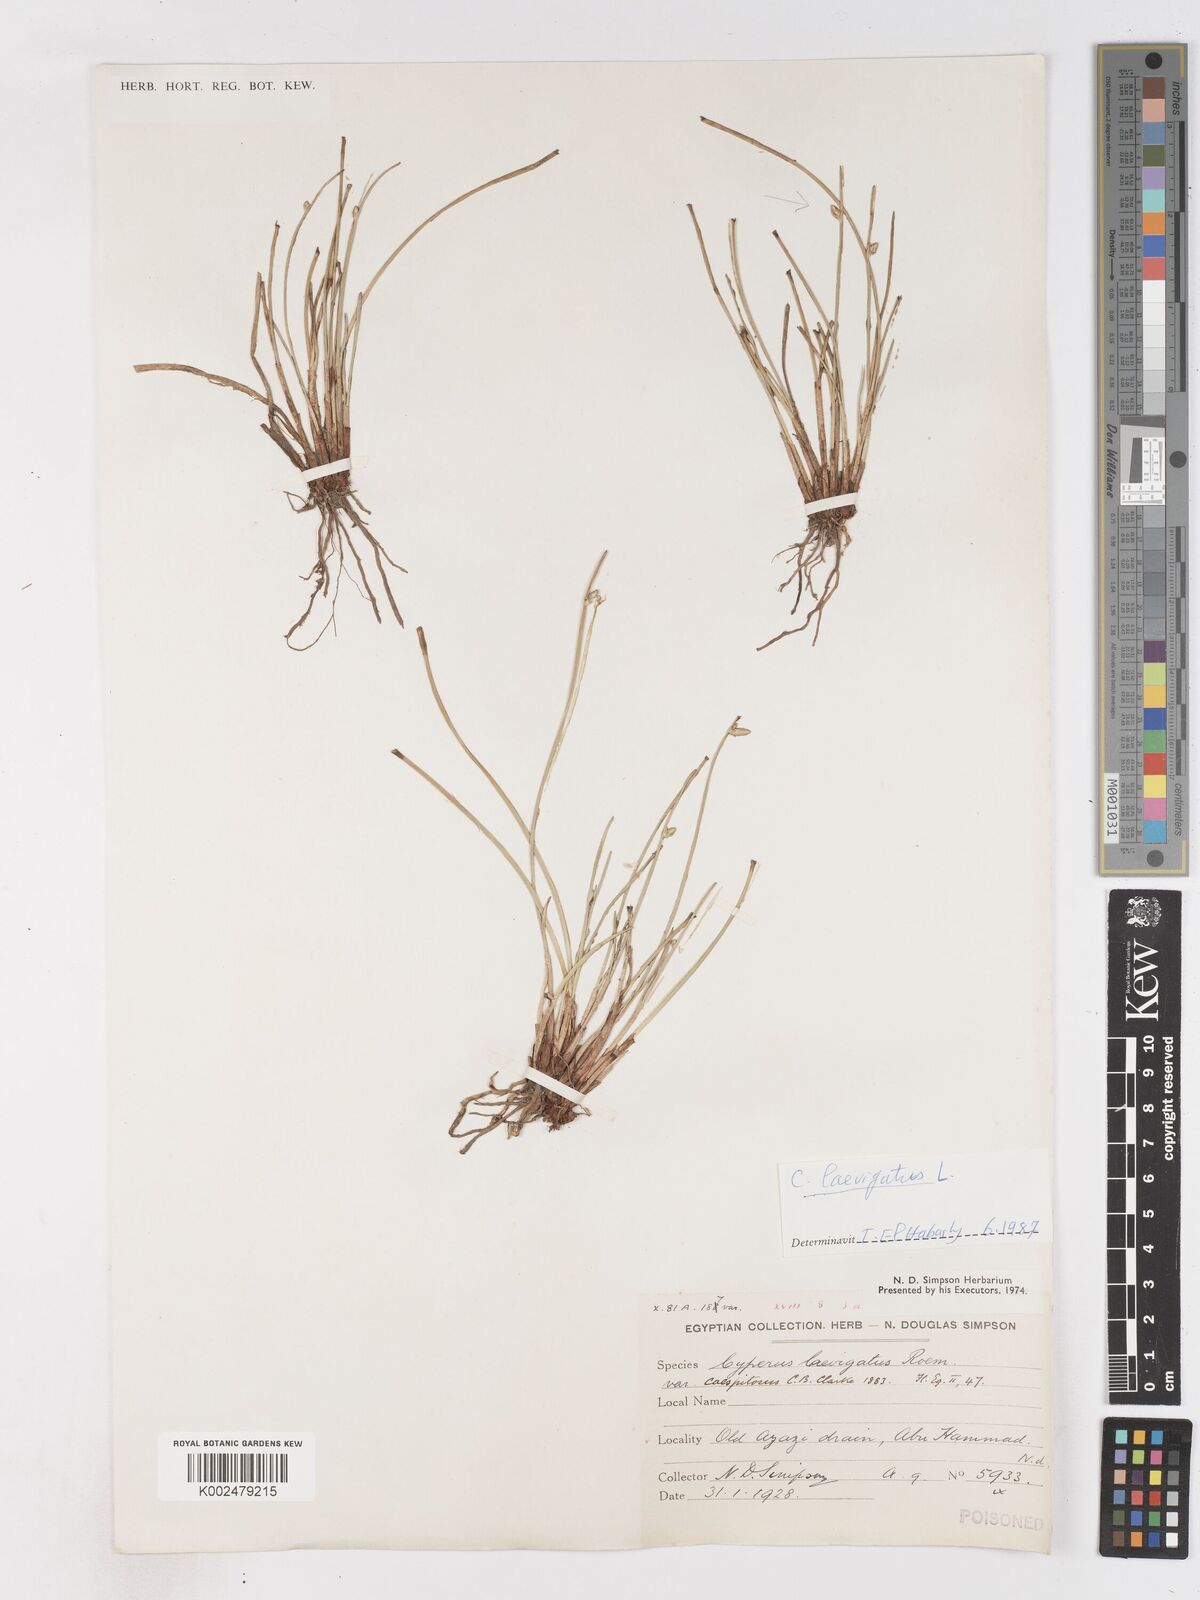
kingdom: Plantae
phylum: Tracheophyta
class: Liliopsida
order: Poales
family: Cyperaceae
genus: Cyperus
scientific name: Cyperus laevigatus
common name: Smooth flat sedge
